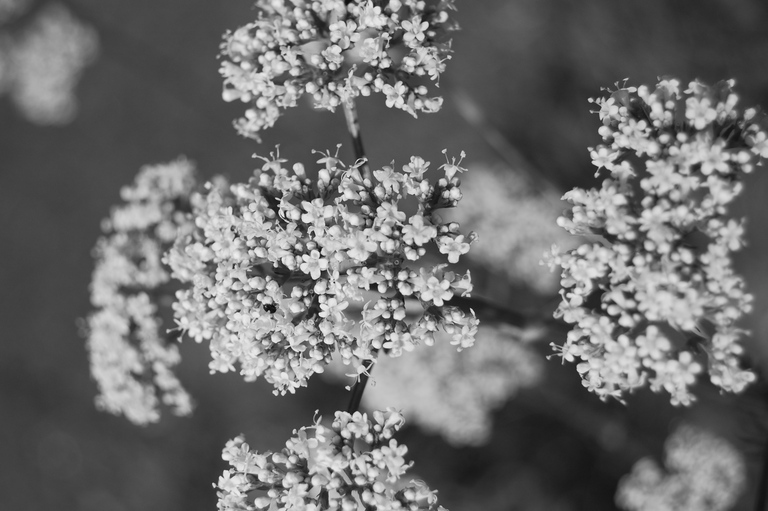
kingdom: Plantae
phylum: Tracheophyta
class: Magnoliopsida
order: Dipsacales
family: Caprifoliaceae
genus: Valeriana
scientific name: Valeriana officinalis
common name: Common valerian
